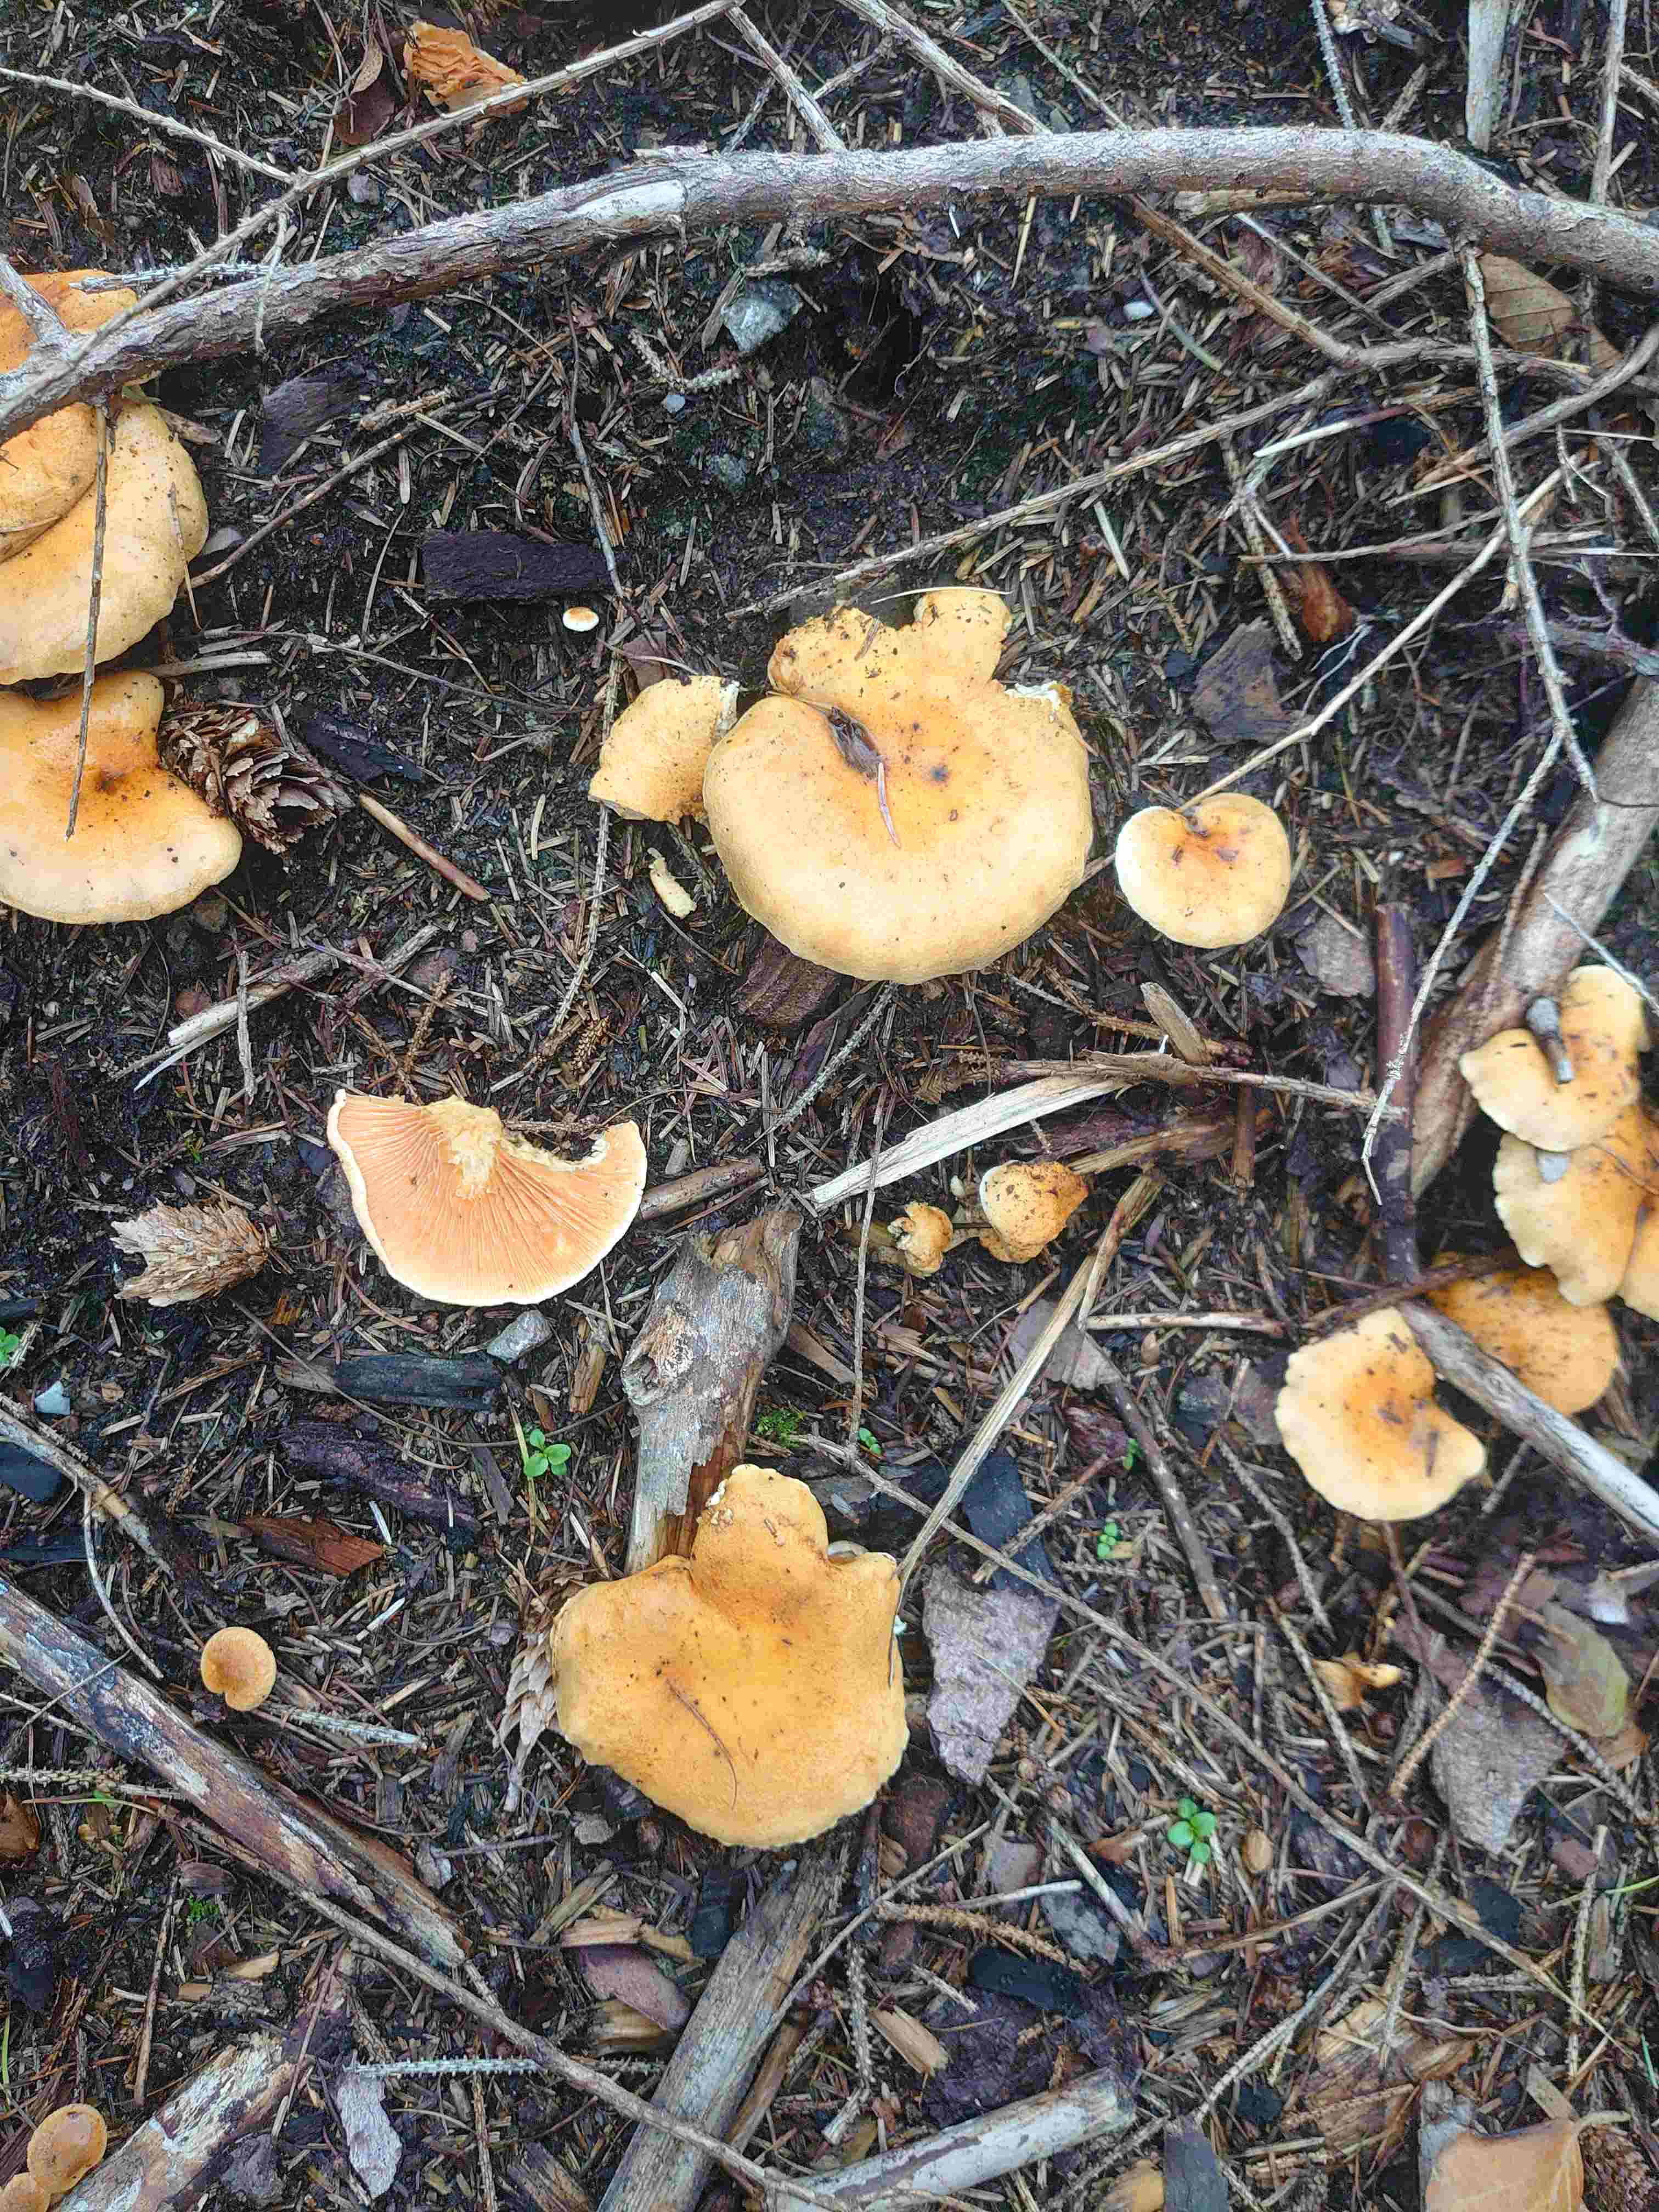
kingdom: Fungi
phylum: Basidiomycota
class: Agaricomycetes
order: Boletales
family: Hygrophoropsidaceae
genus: Hygrophoropsis
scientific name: Hygrophoropsis aurantiaca
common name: almindelig orangekantarel
